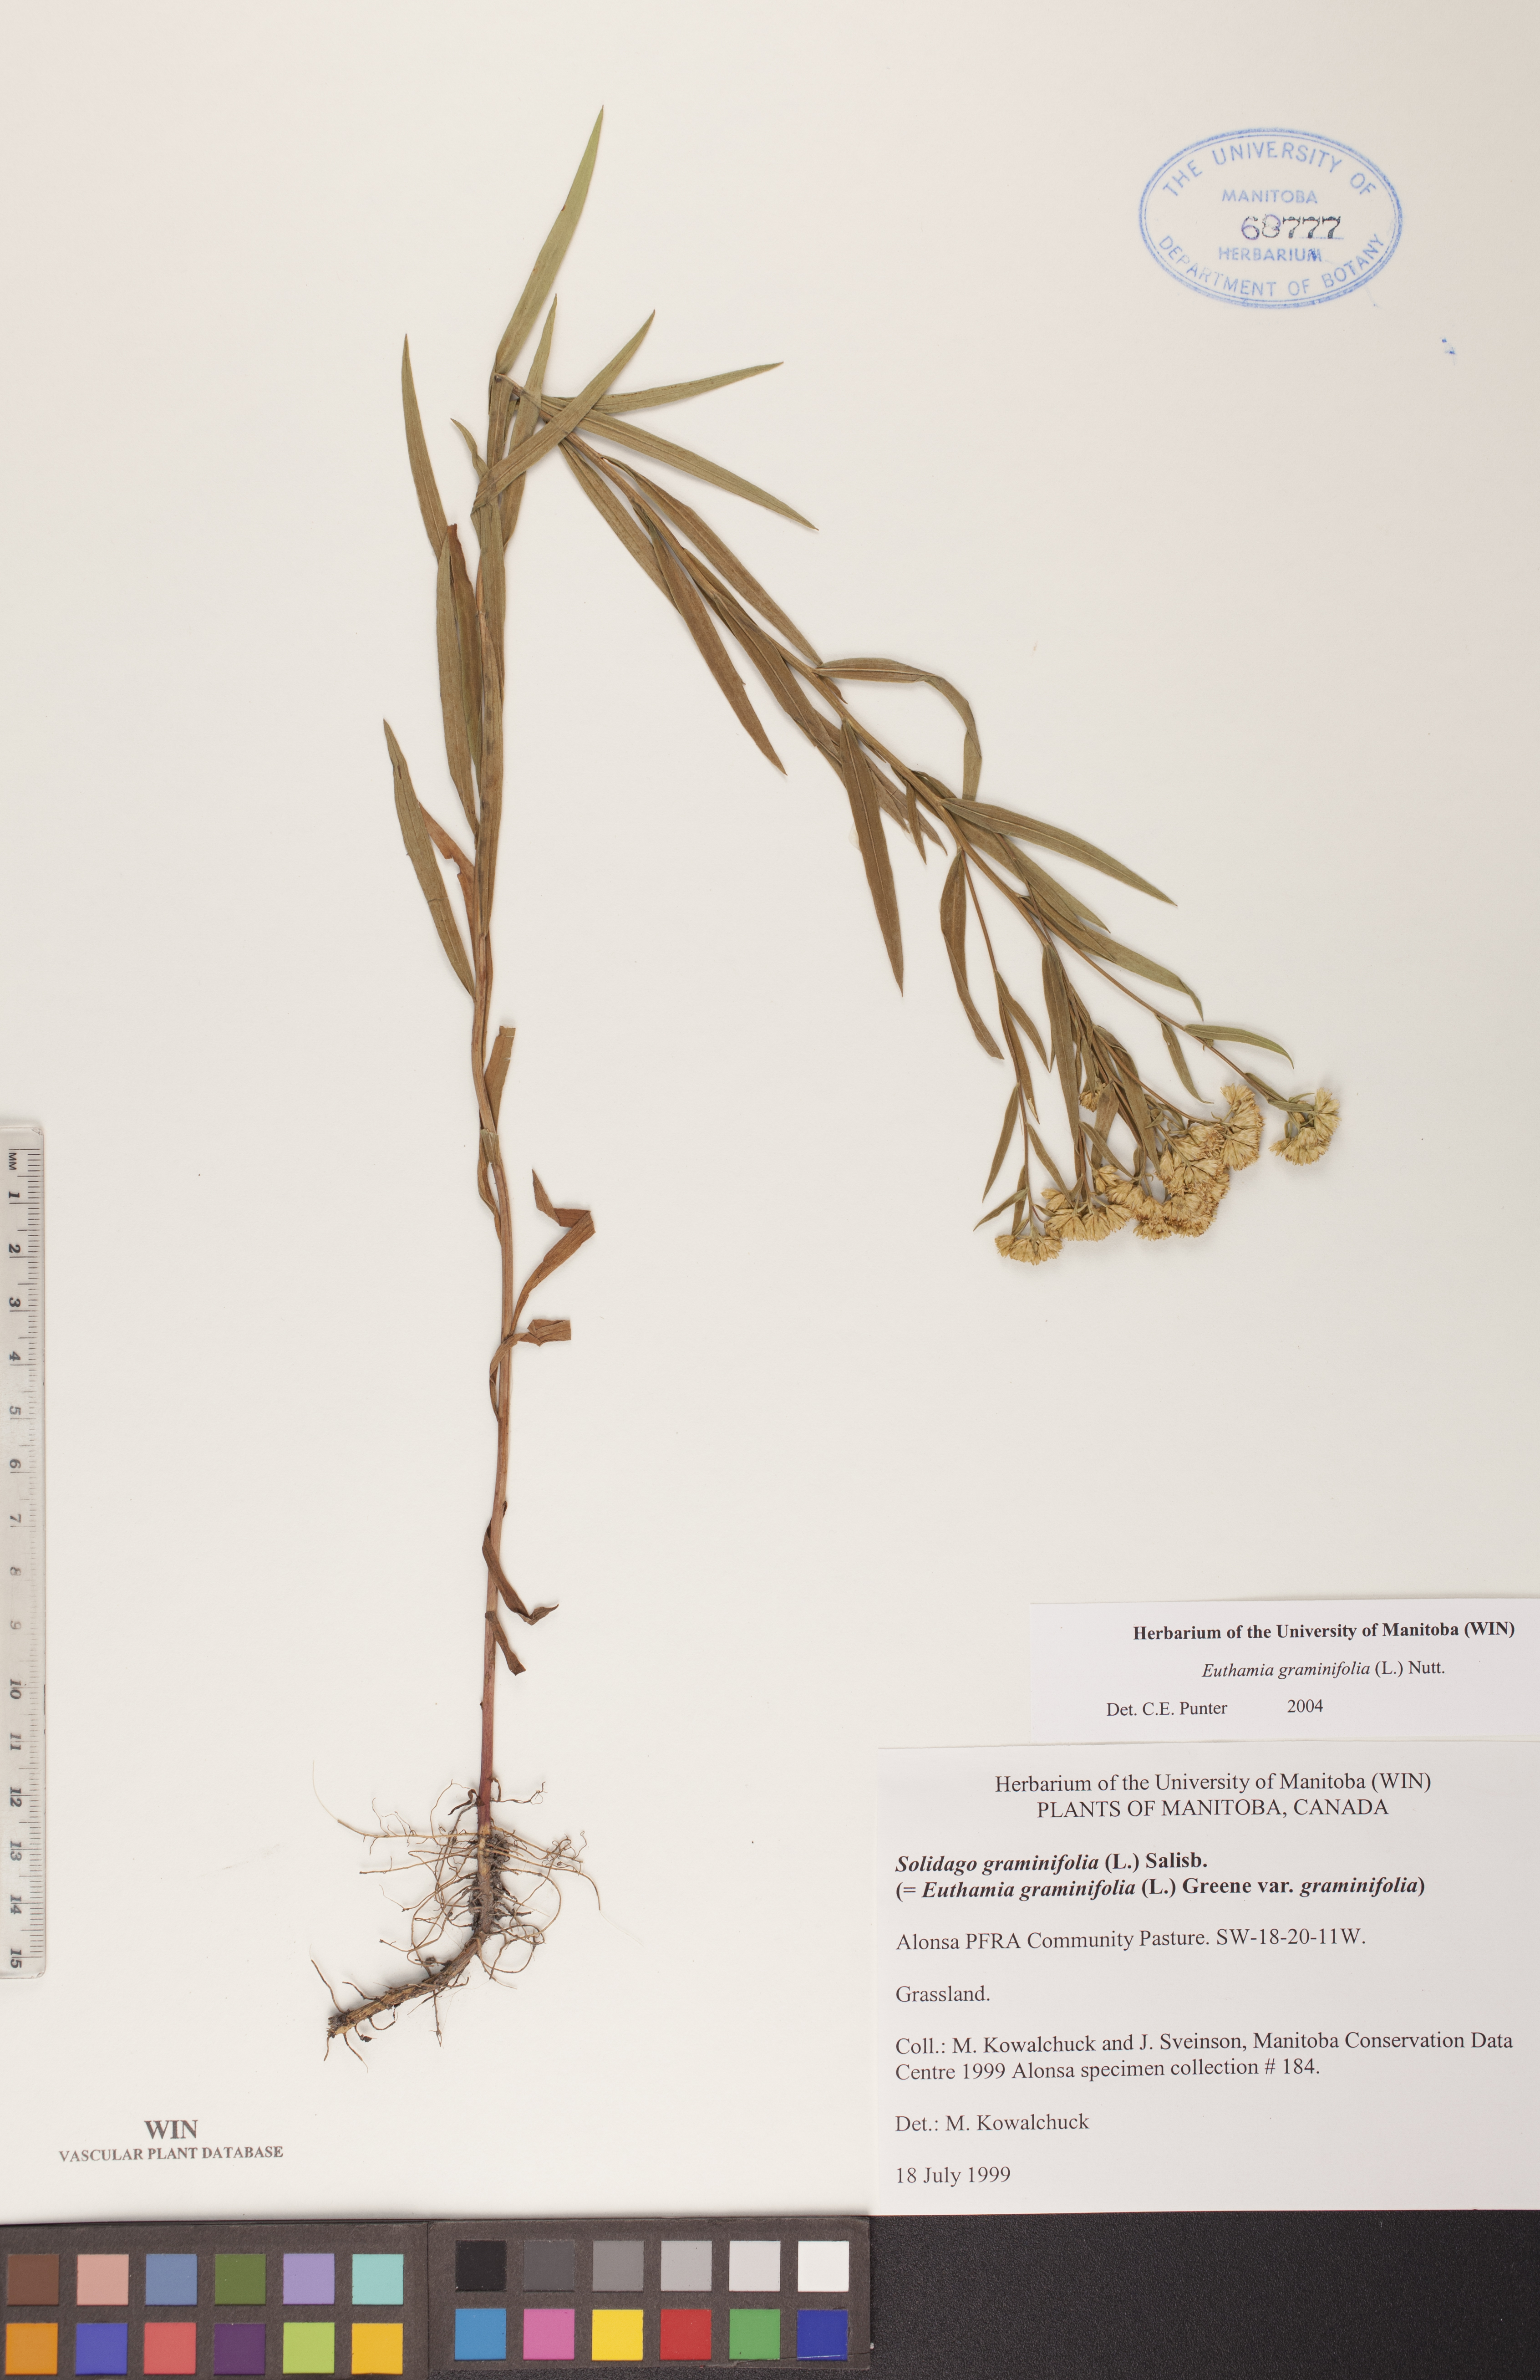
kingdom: Plantae
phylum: Tracheophyta
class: Magnoliopsida
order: Asterales
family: Asteraceae
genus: Euthamia
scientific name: Euthamia graminifolia
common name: Common goldentop
